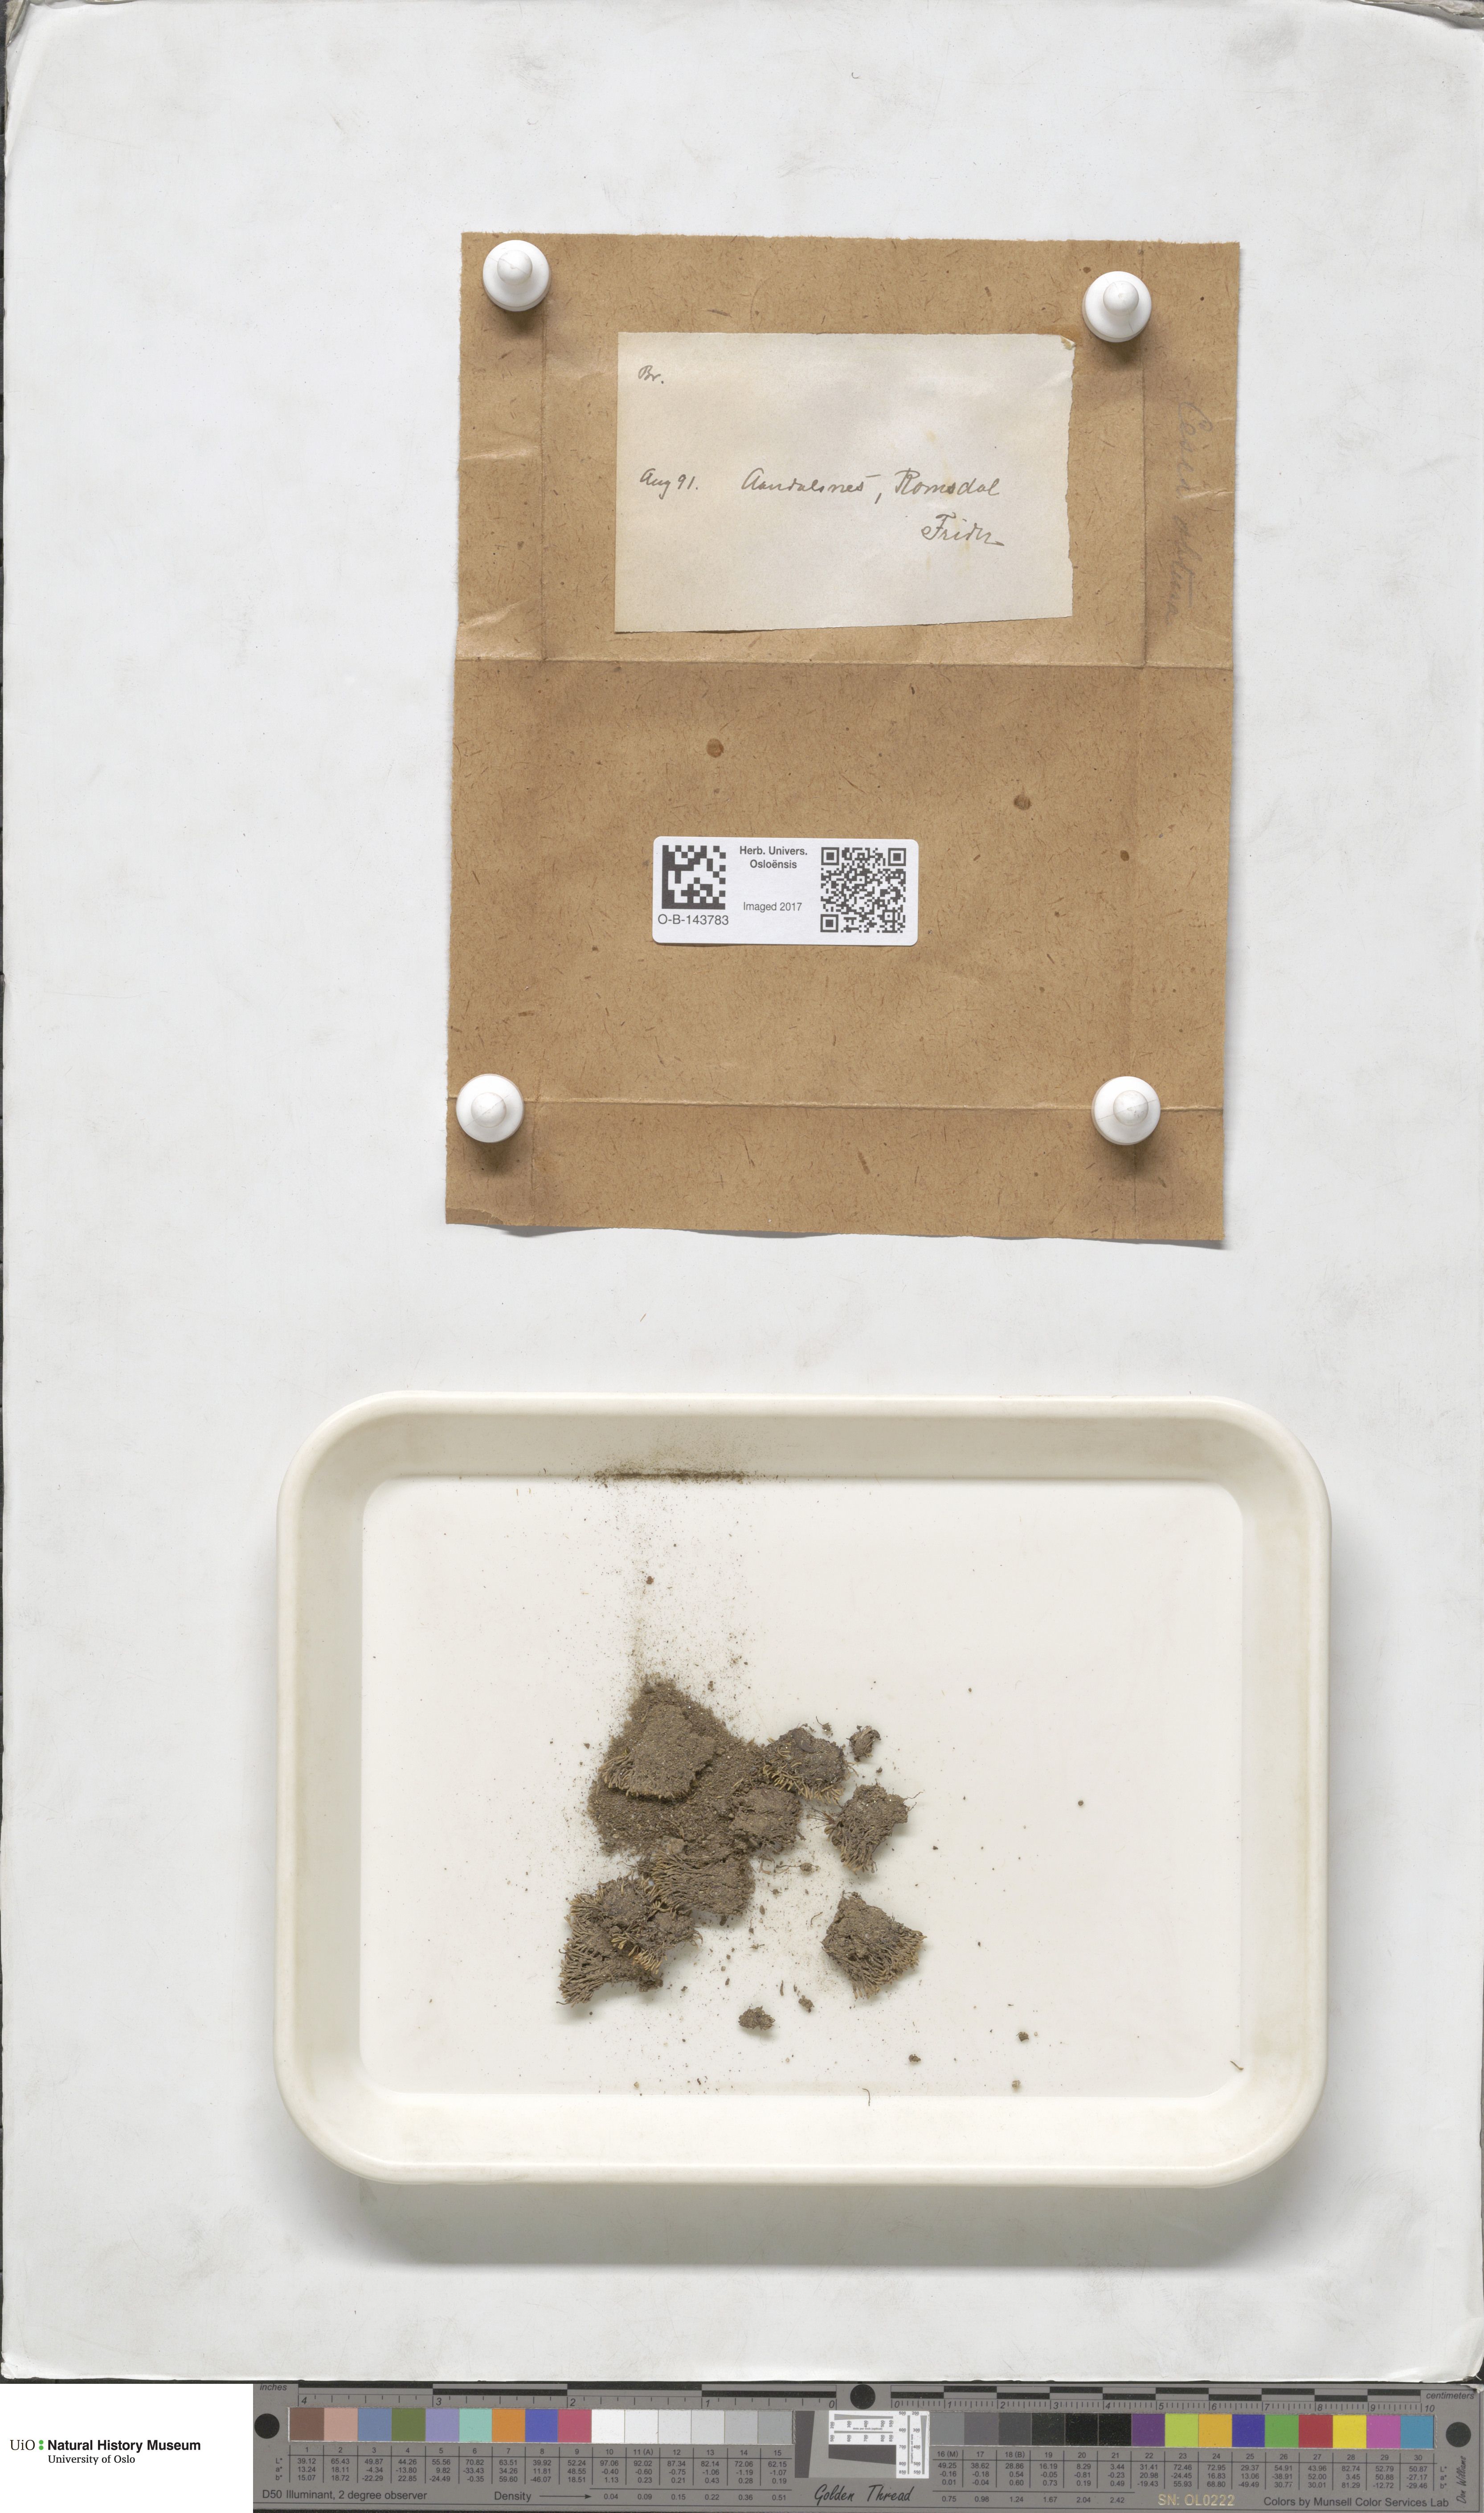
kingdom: Plantae
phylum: Bryophyta
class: Bryopsida
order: Bryales
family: Bryaceae
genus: Bryum
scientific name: Bryum
